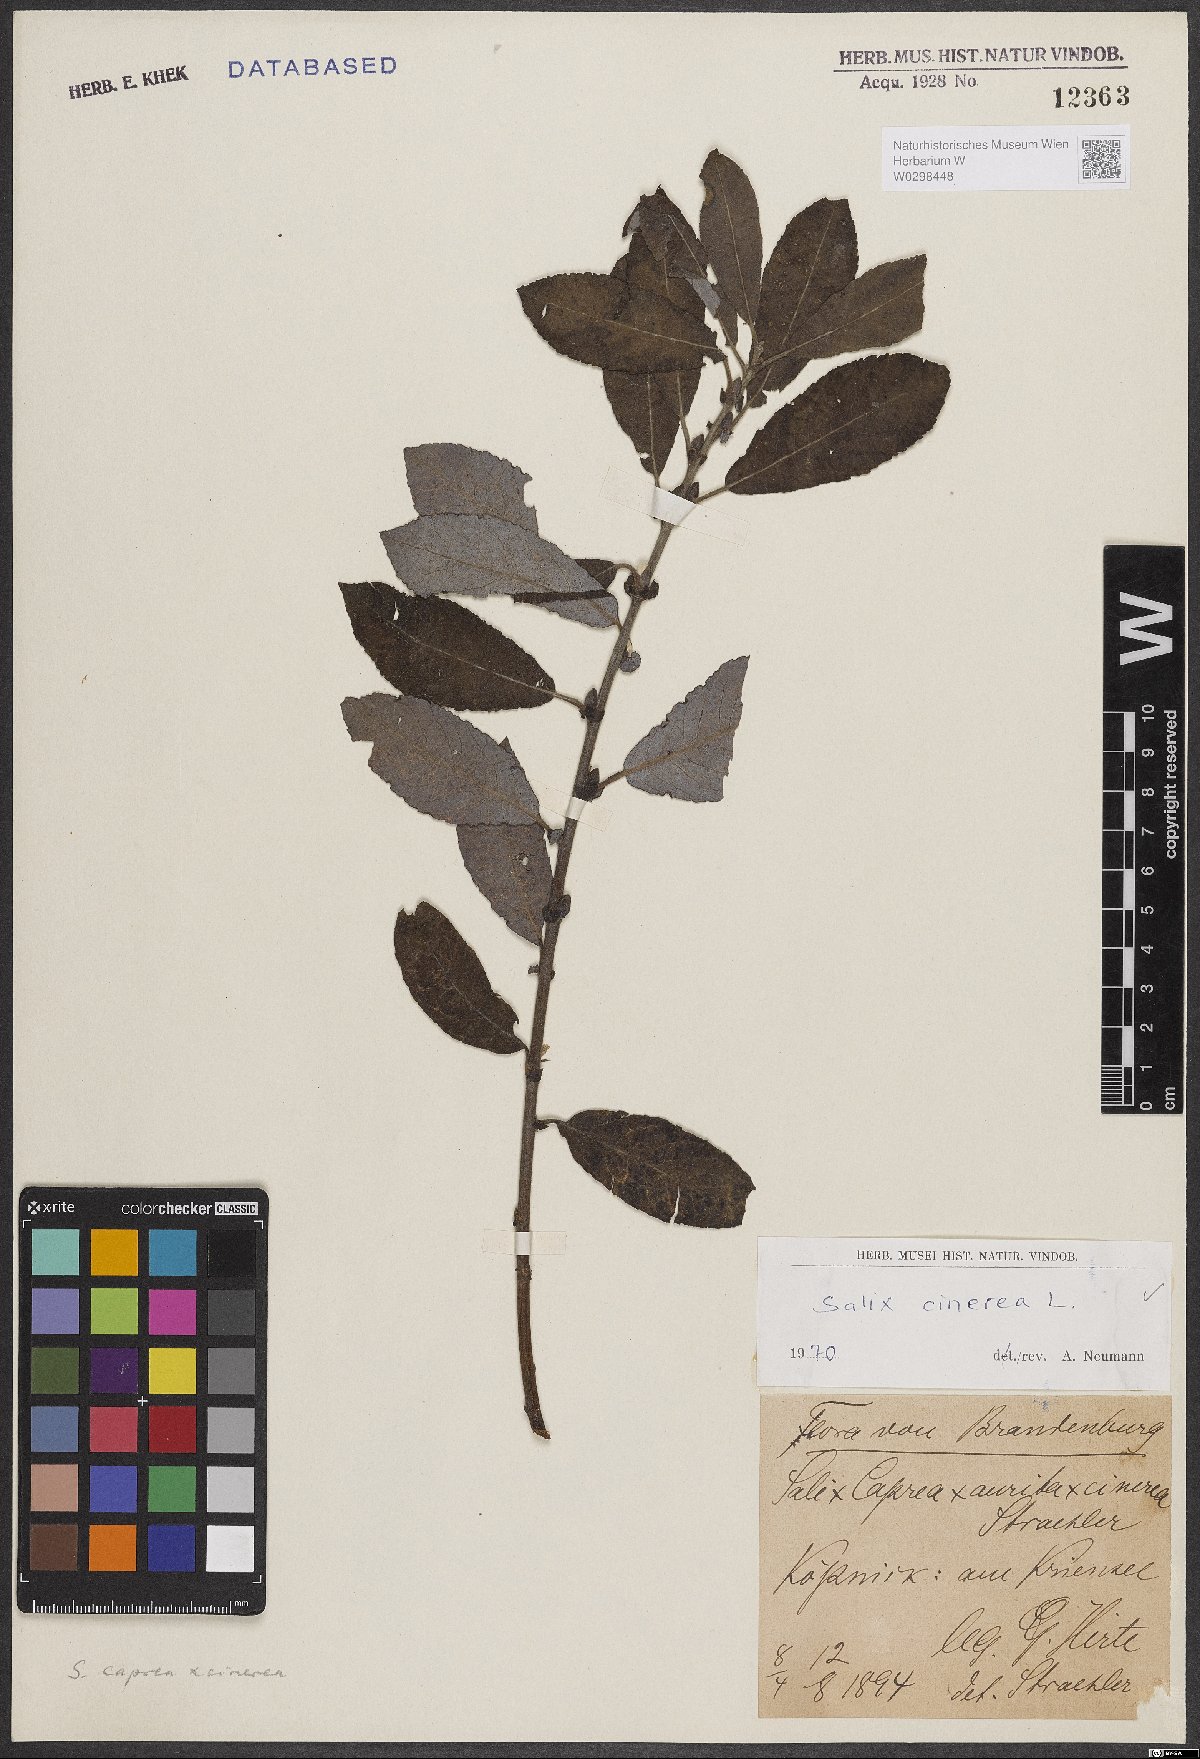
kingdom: Plantae
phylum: Tracheophyta
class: Magnoliopsida
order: Malpighiales
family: Salicaceae
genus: Salix
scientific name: Salix cinerea
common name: Common sallow
